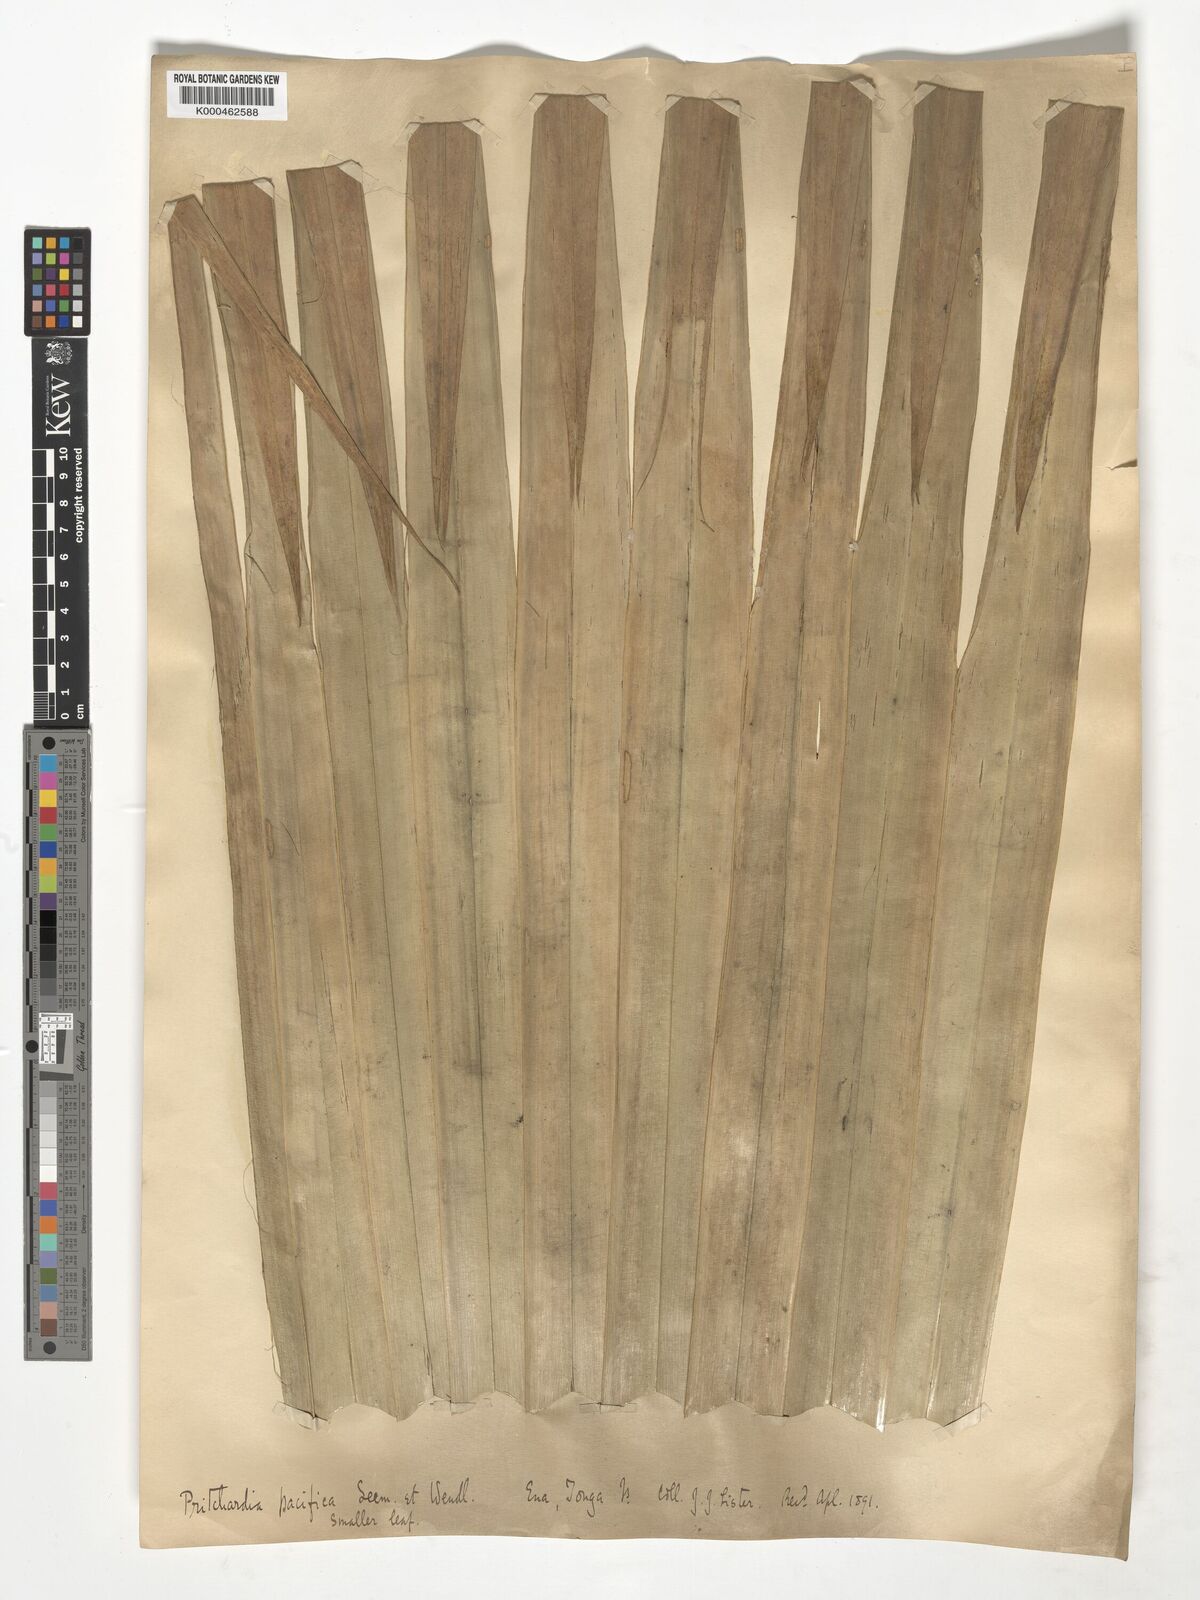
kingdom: Plantae
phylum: Tracheophyta
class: Liliopsida
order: Arecales
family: Arecaceae
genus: Pritchardia
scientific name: Pritchardia pacifica
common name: Fiji fan palm
